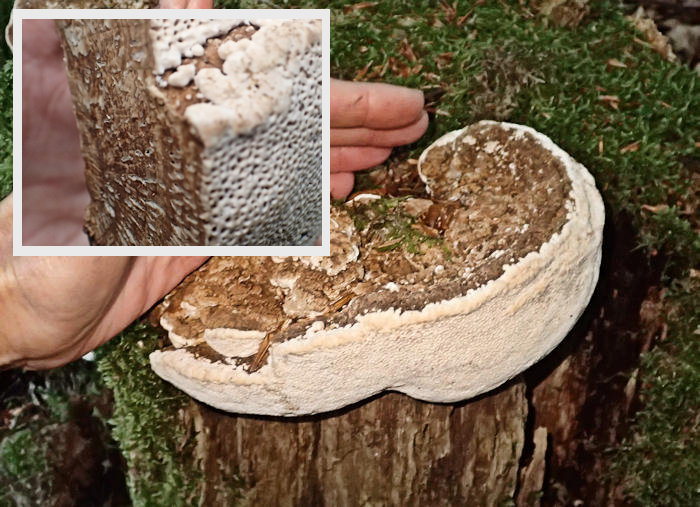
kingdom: Fungi
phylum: Basidiomycota
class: Agaricomycetes
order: Polyporales
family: Fomitopsidaceae
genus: Daedalea
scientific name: Daedalea quercina
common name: ege-labyrintsvamp
